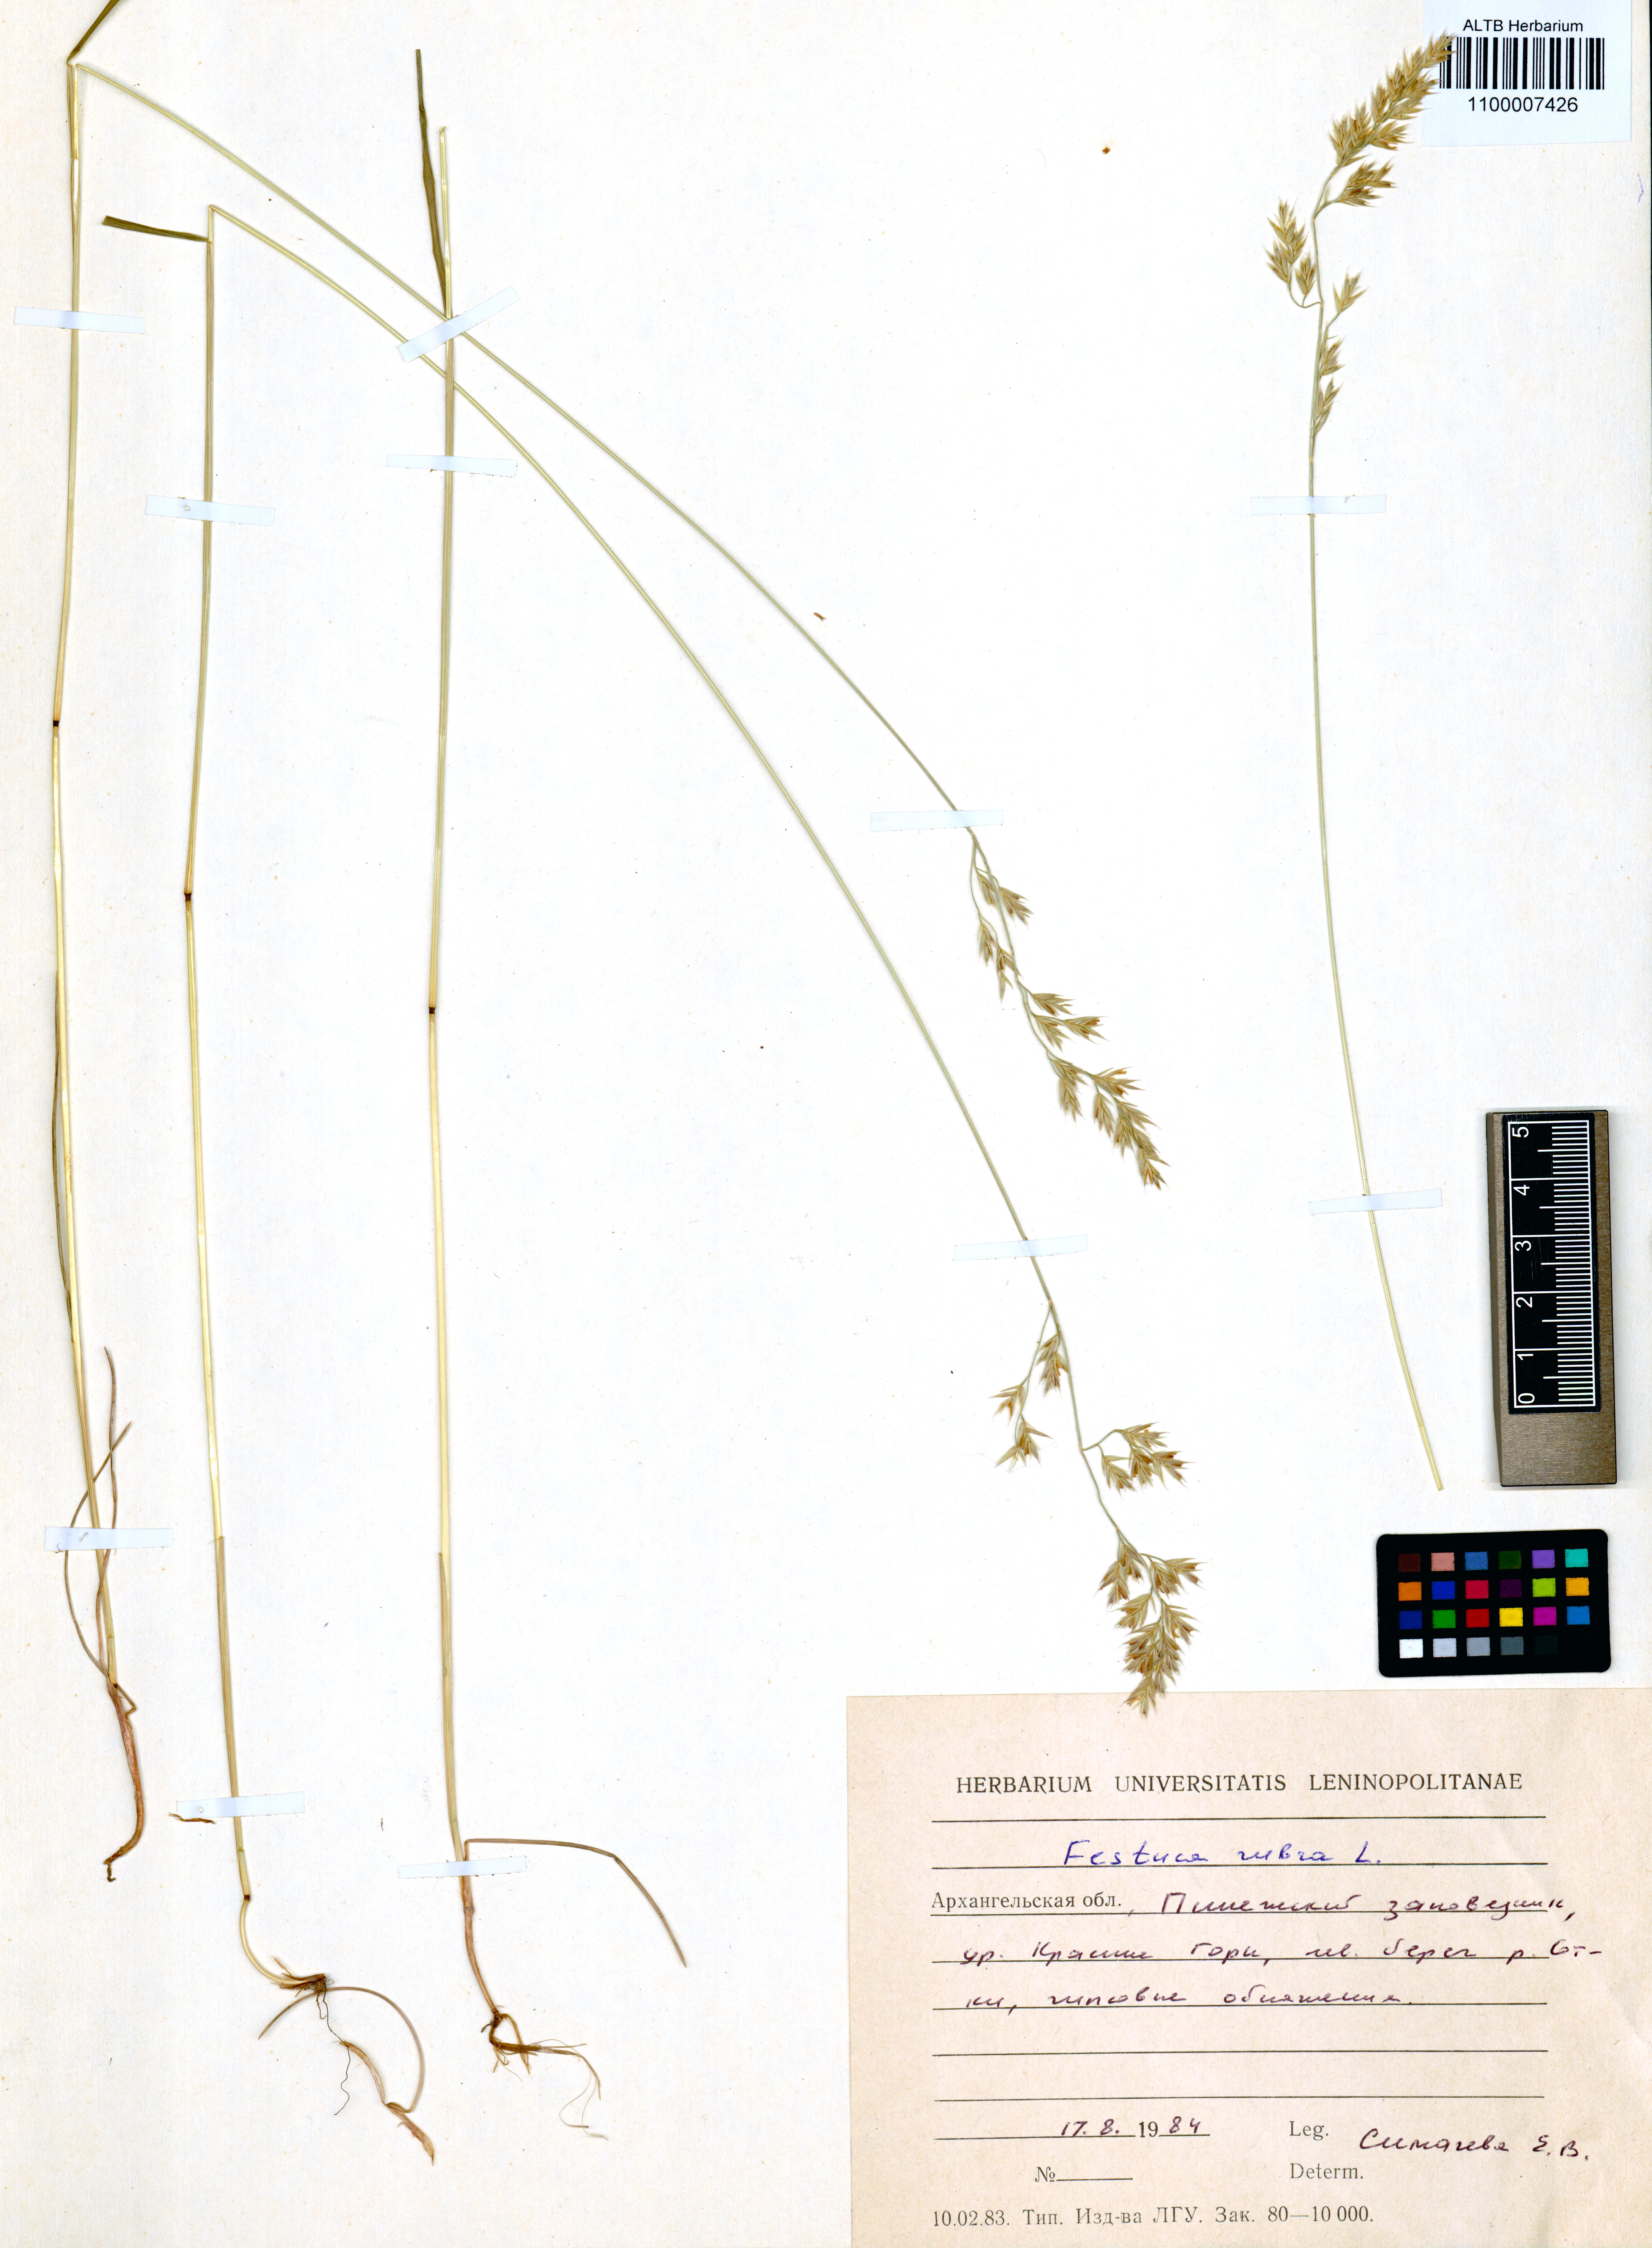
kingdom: Plantae
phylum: Tracheophyta
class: Liliopsida
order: Poales
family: Poaceae
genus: Festuca
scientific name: Festuca rubra
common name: Red fescue
